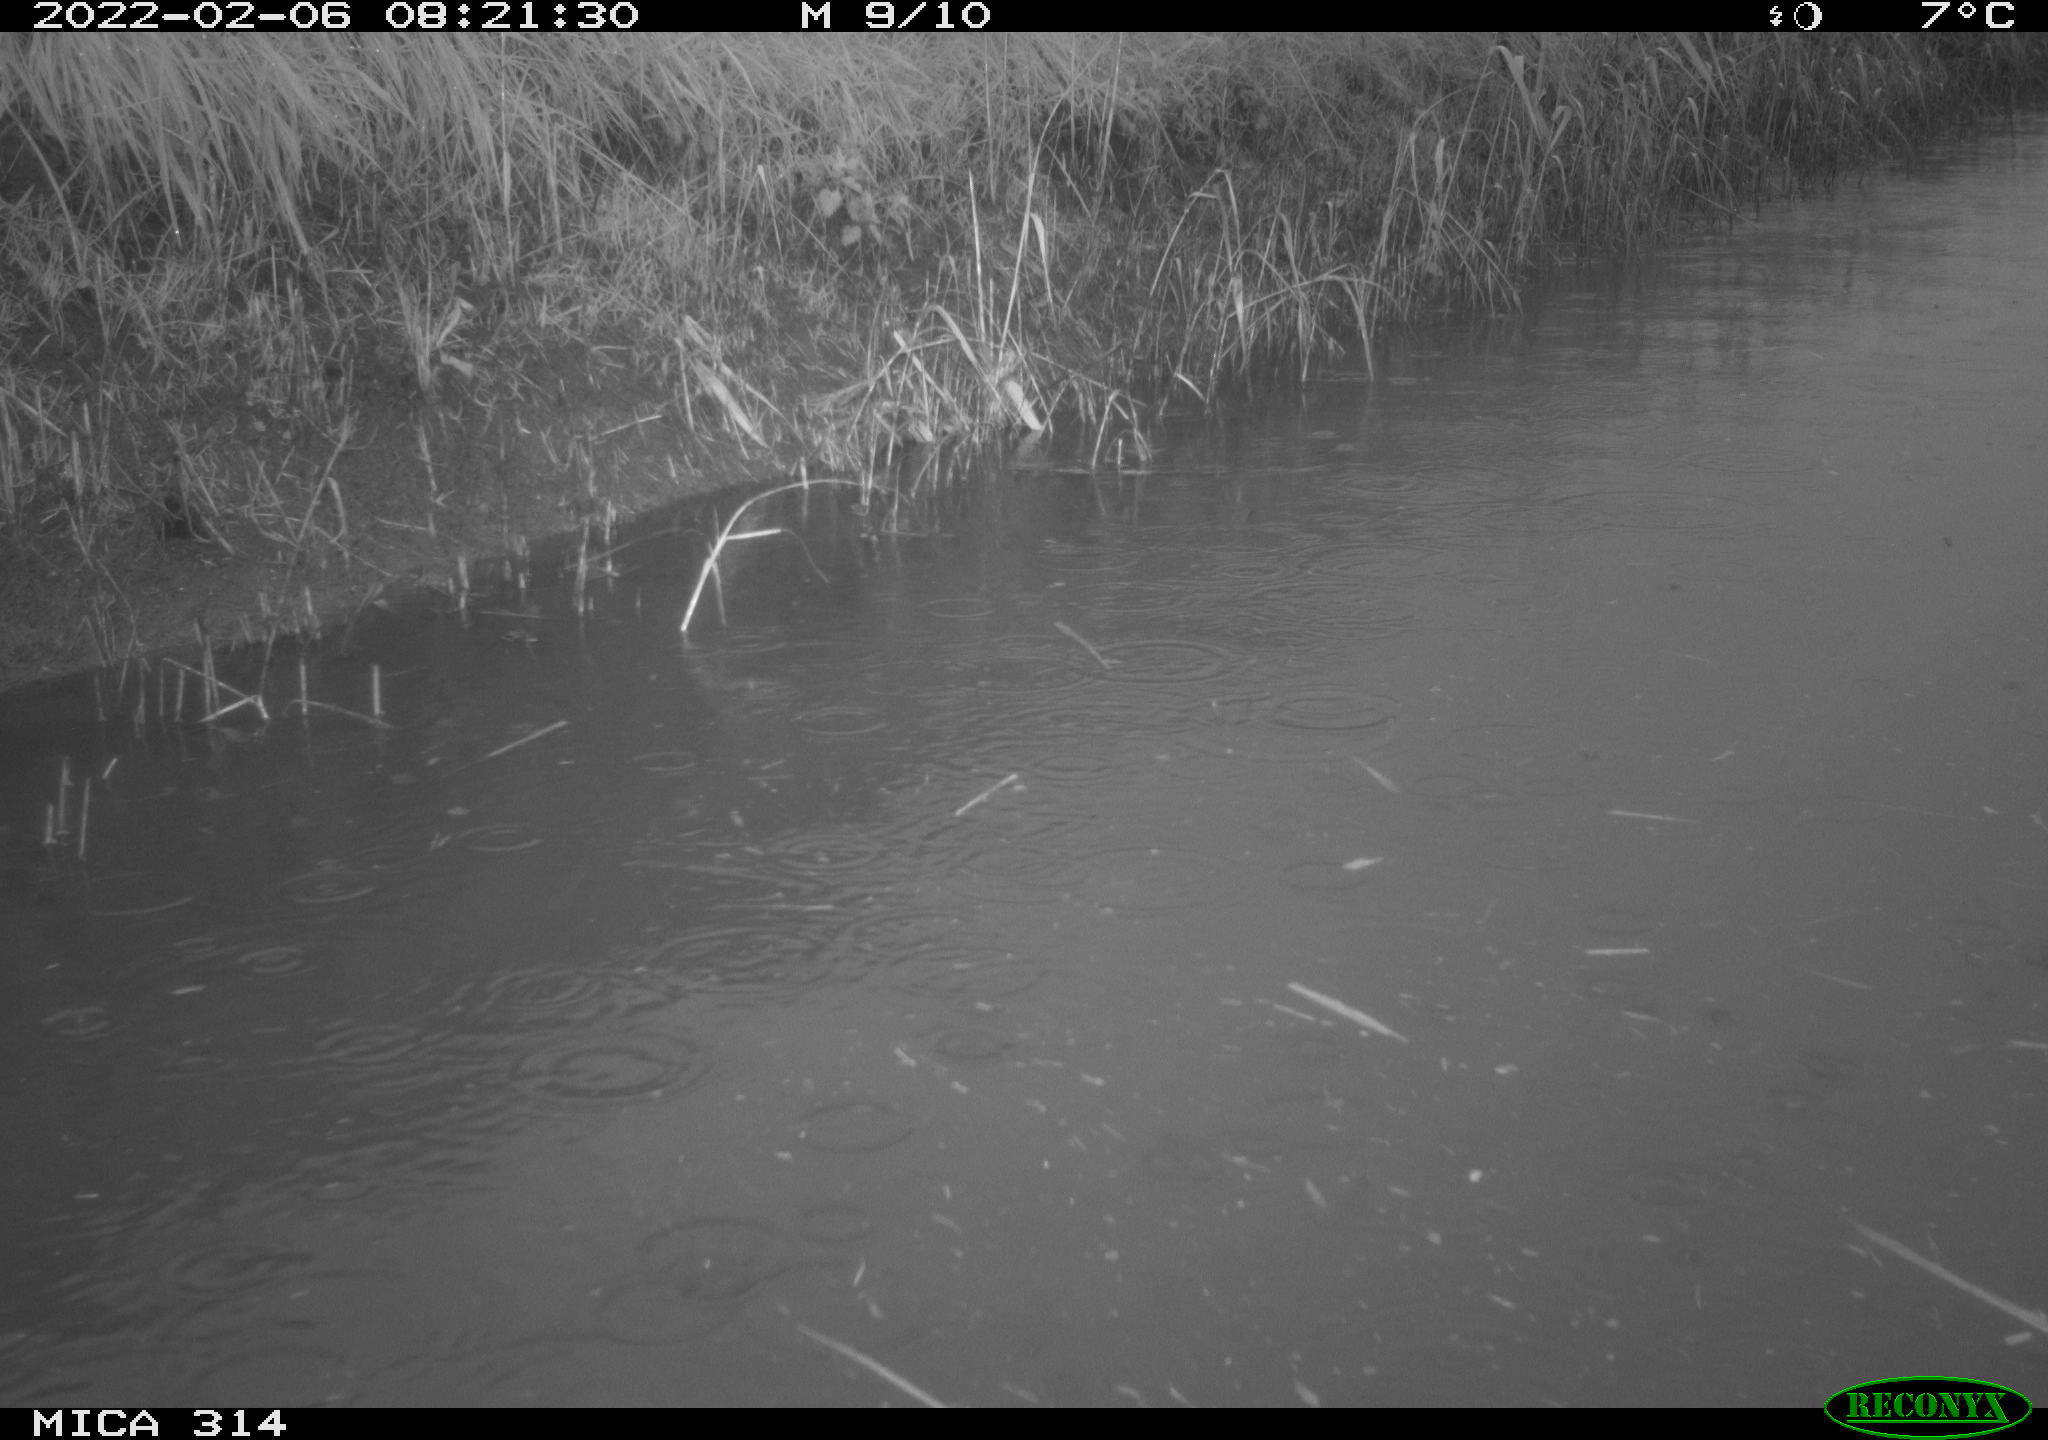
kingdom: Animalia
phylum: Chordata
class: Aves
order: Gruiformes
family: Rallidae
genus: Gallinula
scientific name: Gallinula chloropus
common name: Common moorhen
